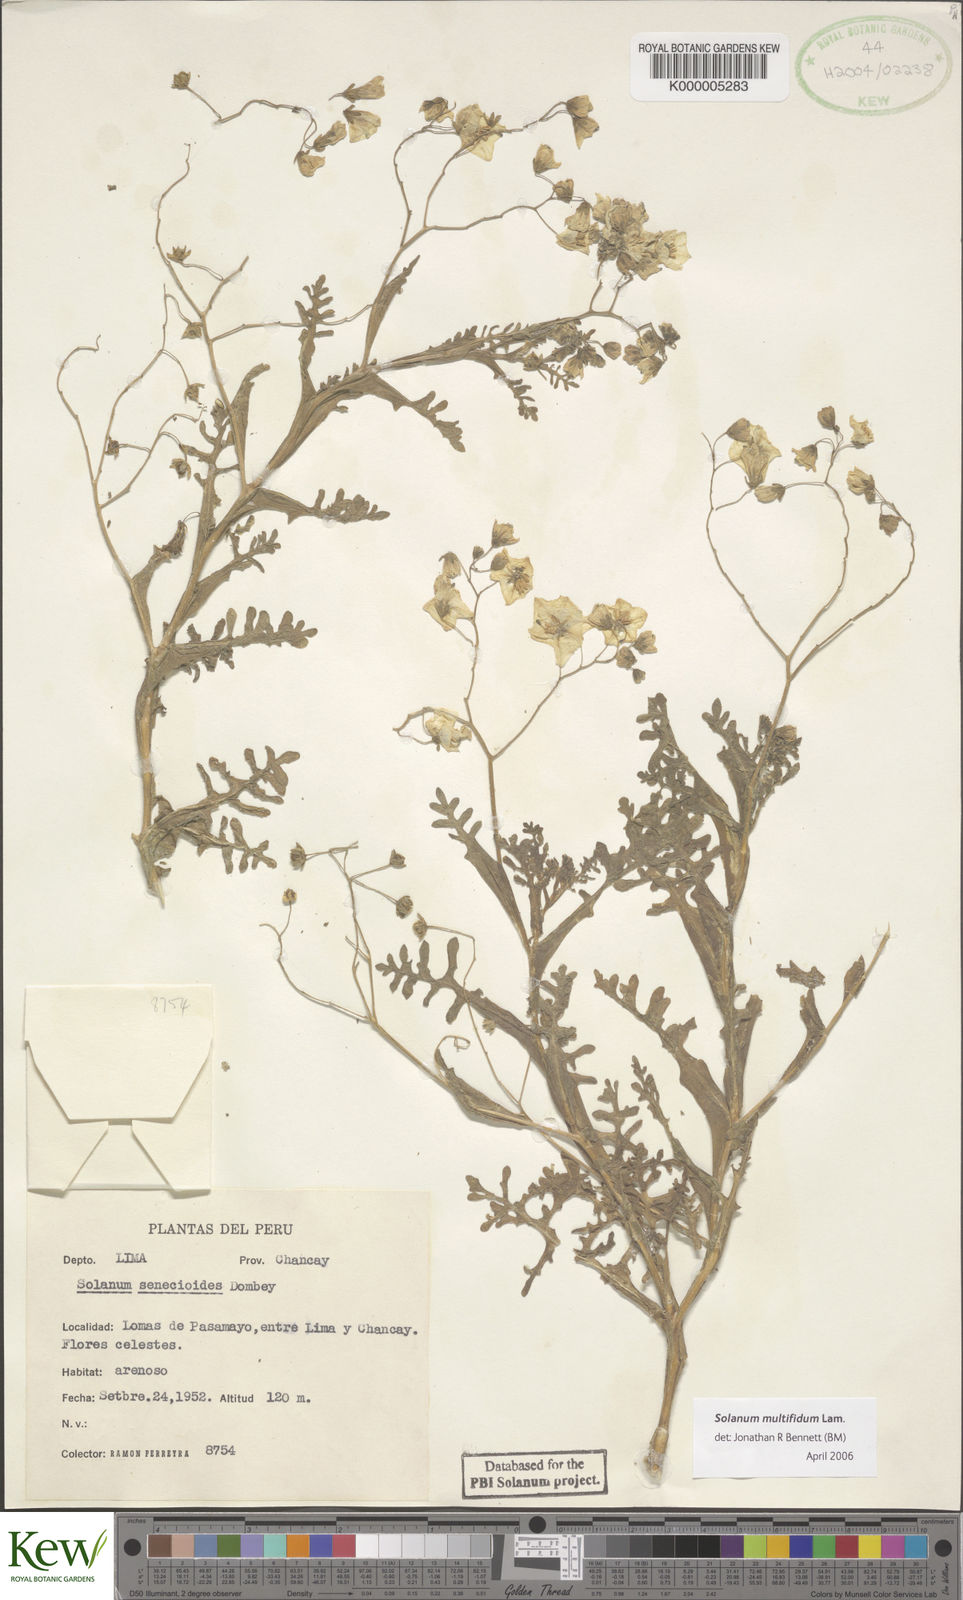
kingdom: Plantae
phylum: Tracheophyta
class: Magnoliopsida
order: Solanales
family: Solanaceae
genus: Solanum
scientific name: Solanum multifidum
